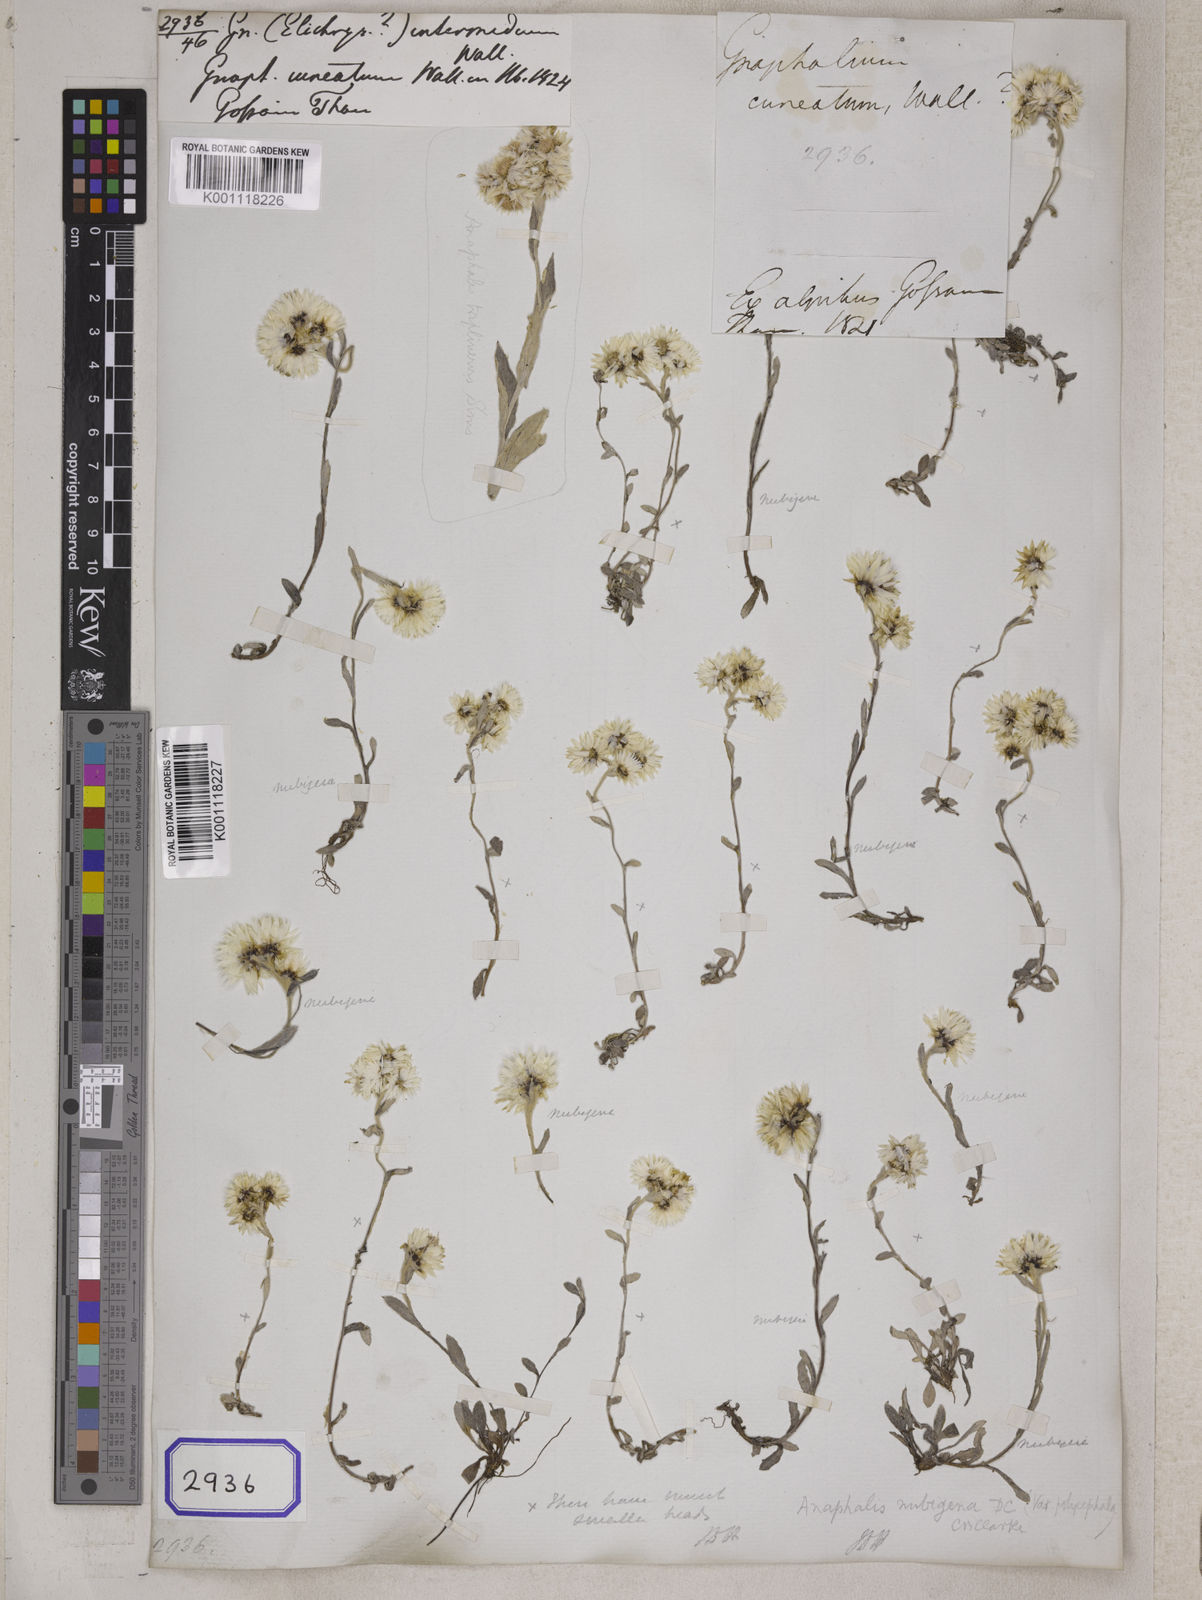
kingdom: Plantae
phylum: Tracheophyta
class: Magnoliopsida
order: Asterales
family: Asteraceae
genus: Anaphalis
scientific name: Anaphalis nepalensis
